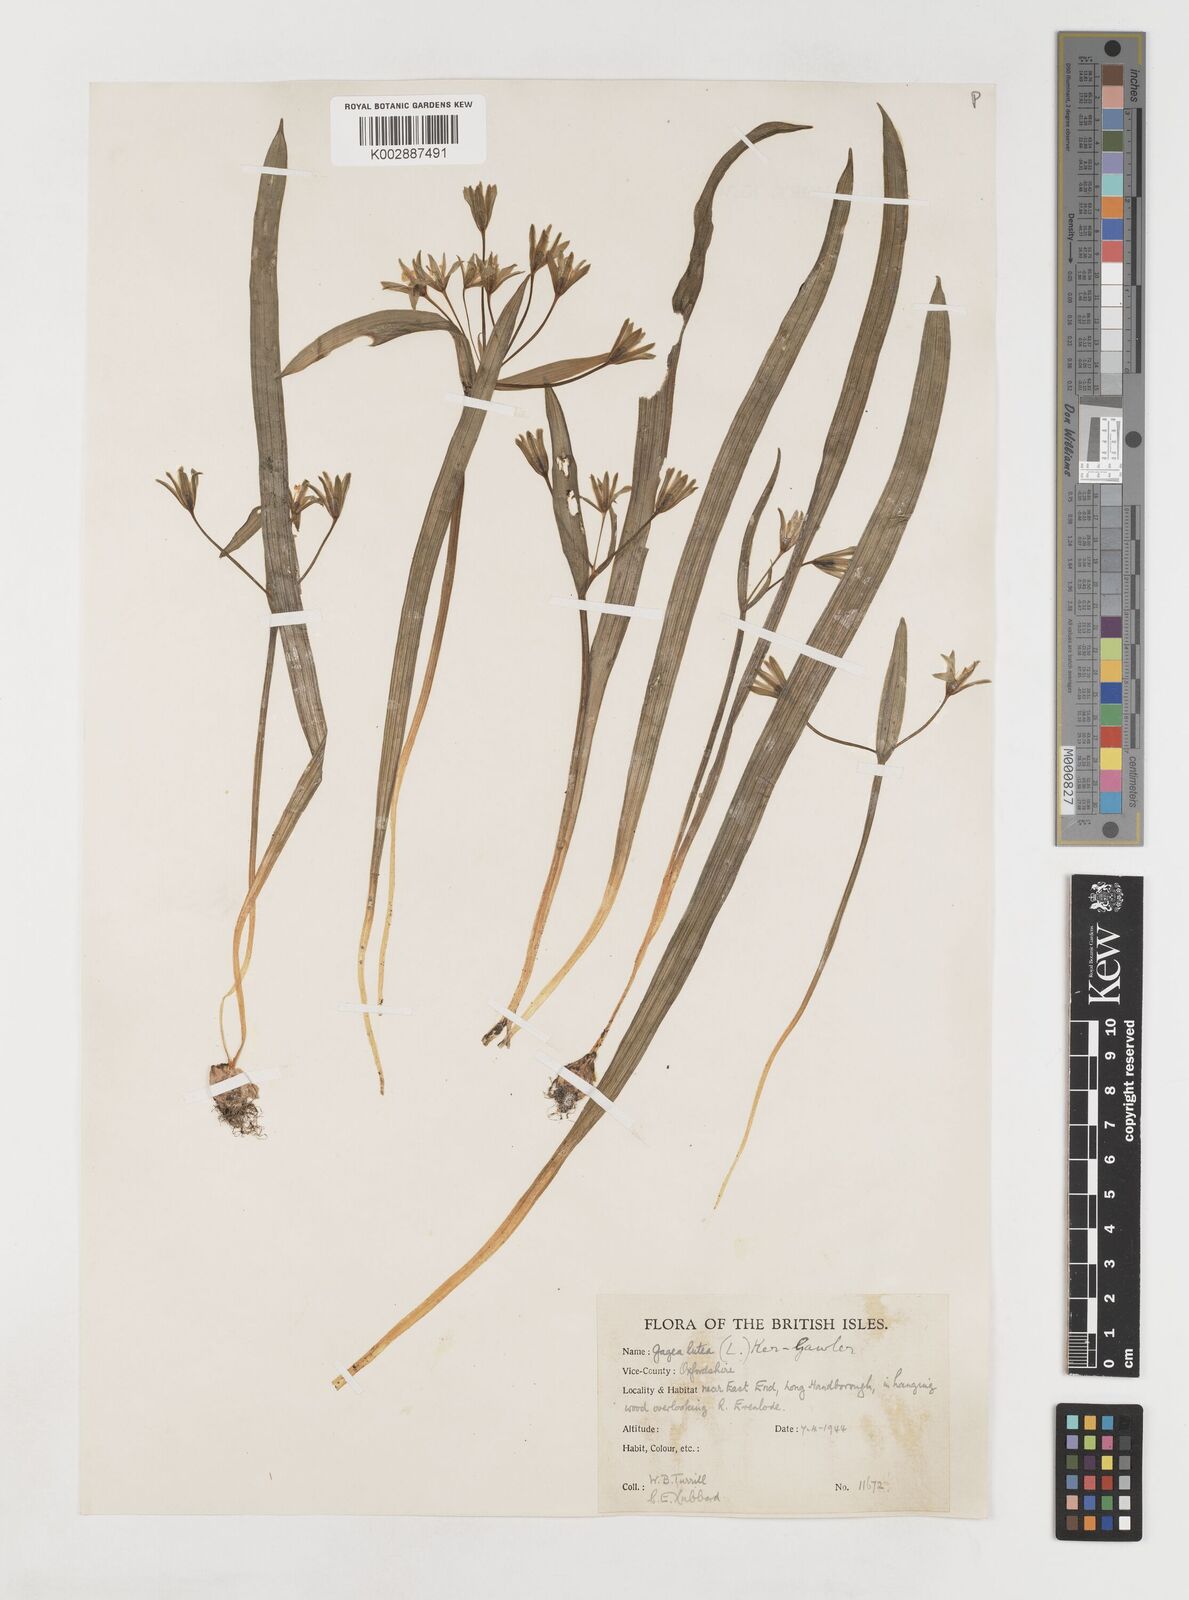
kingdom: Plantae
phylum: Tracheophyta
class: Liliopsida
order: Liliales
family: Liliaceae
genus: Gagea
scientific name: Gagea lutea
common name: Yellow star-of-bethlehem
